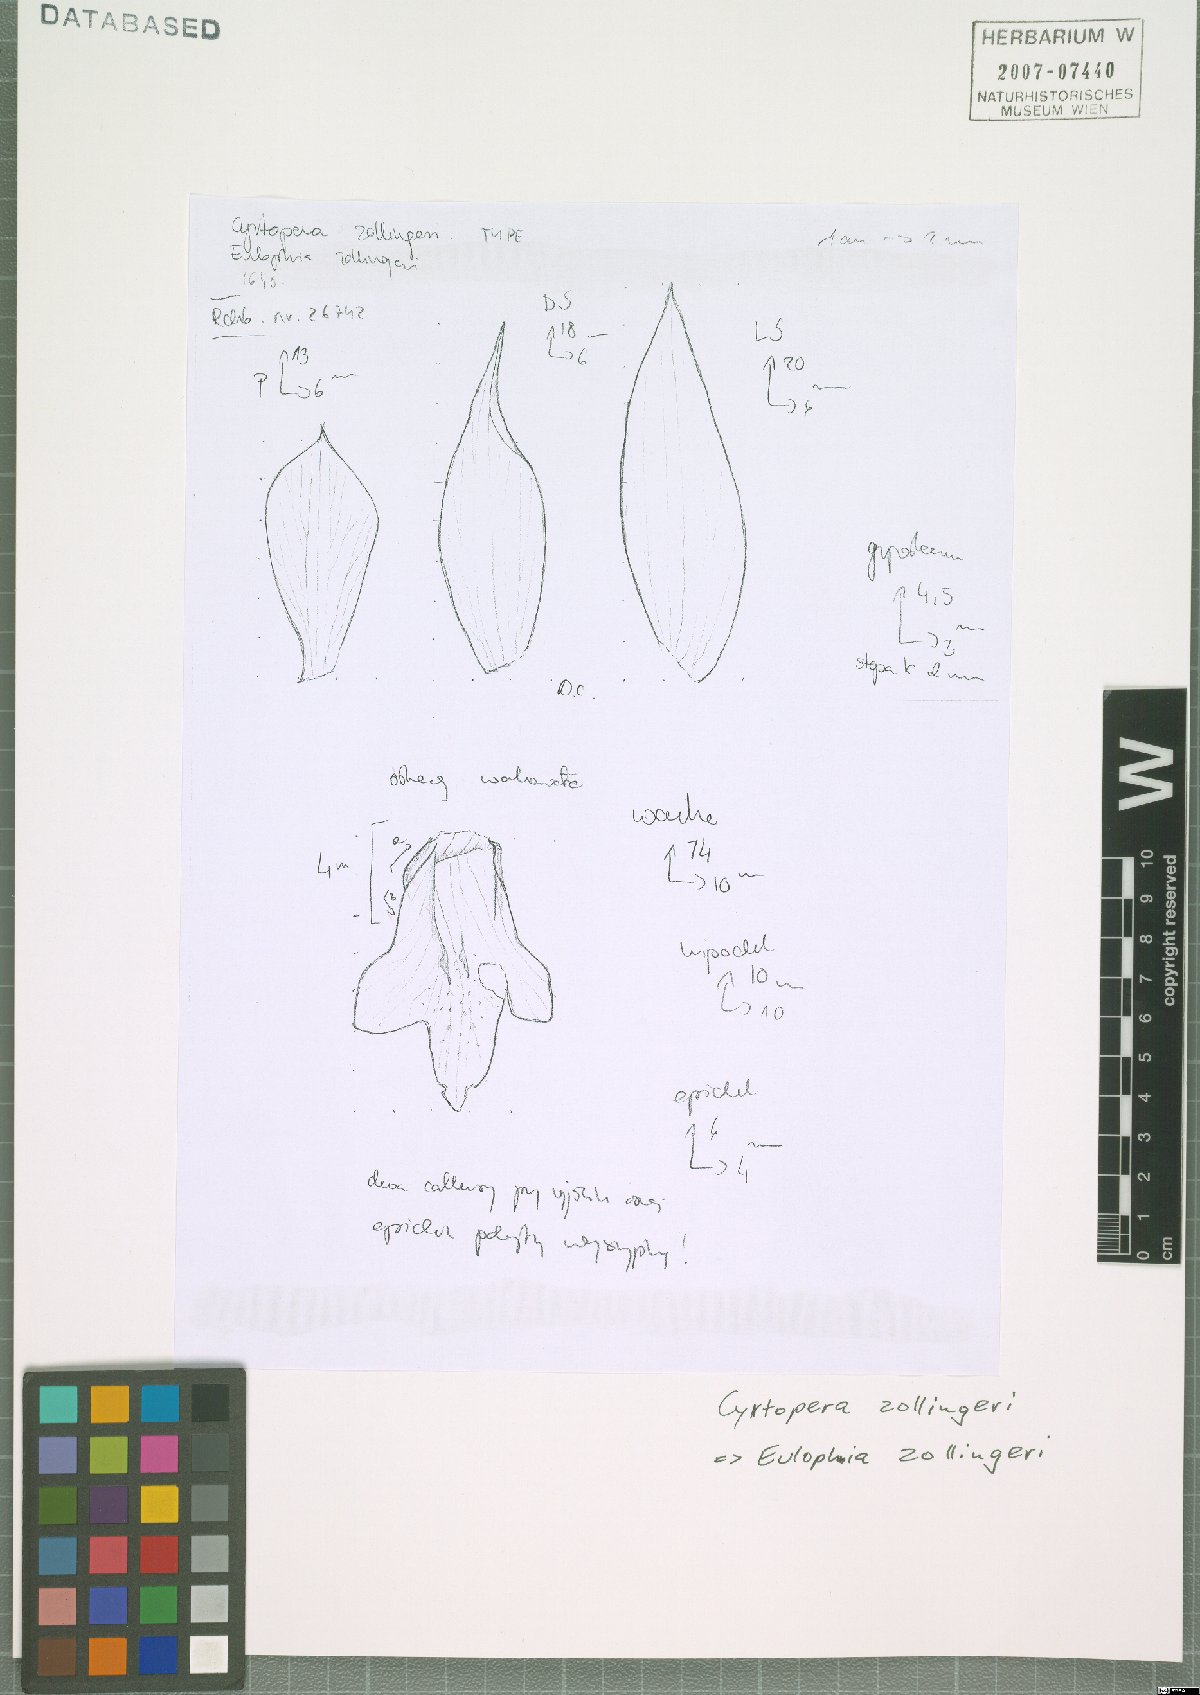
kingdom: Plantae
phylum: Tracheophyta
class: Liliopsida
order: Asparagales
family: Orchidaceae
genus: Eulophia
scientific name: Eulophia zollingeri
